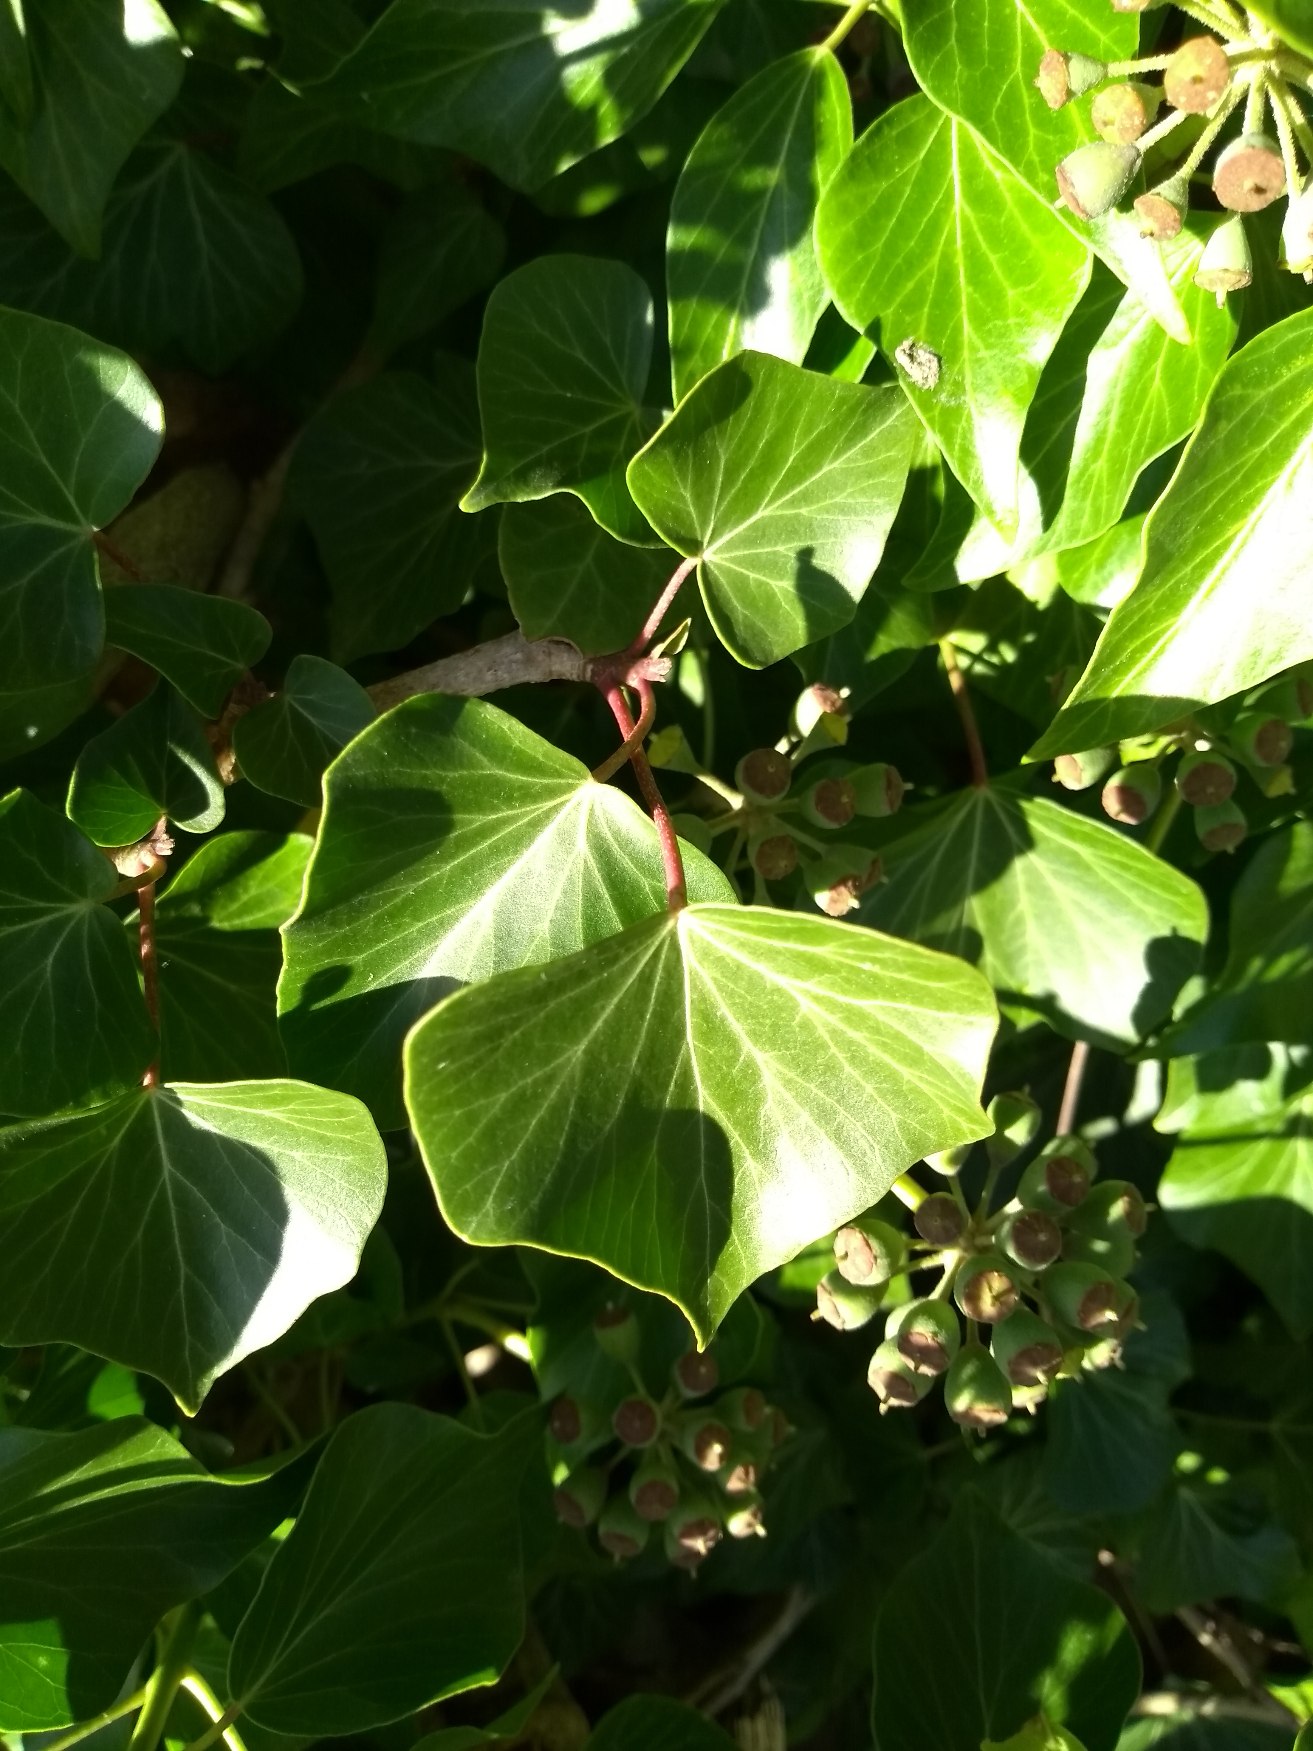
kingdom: Plantae
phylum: Tracheophyta
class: Magnoliopsida
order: Apiales
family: Araliaceae
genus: Hedera
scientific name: Hedera
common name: Vedbendslægten
